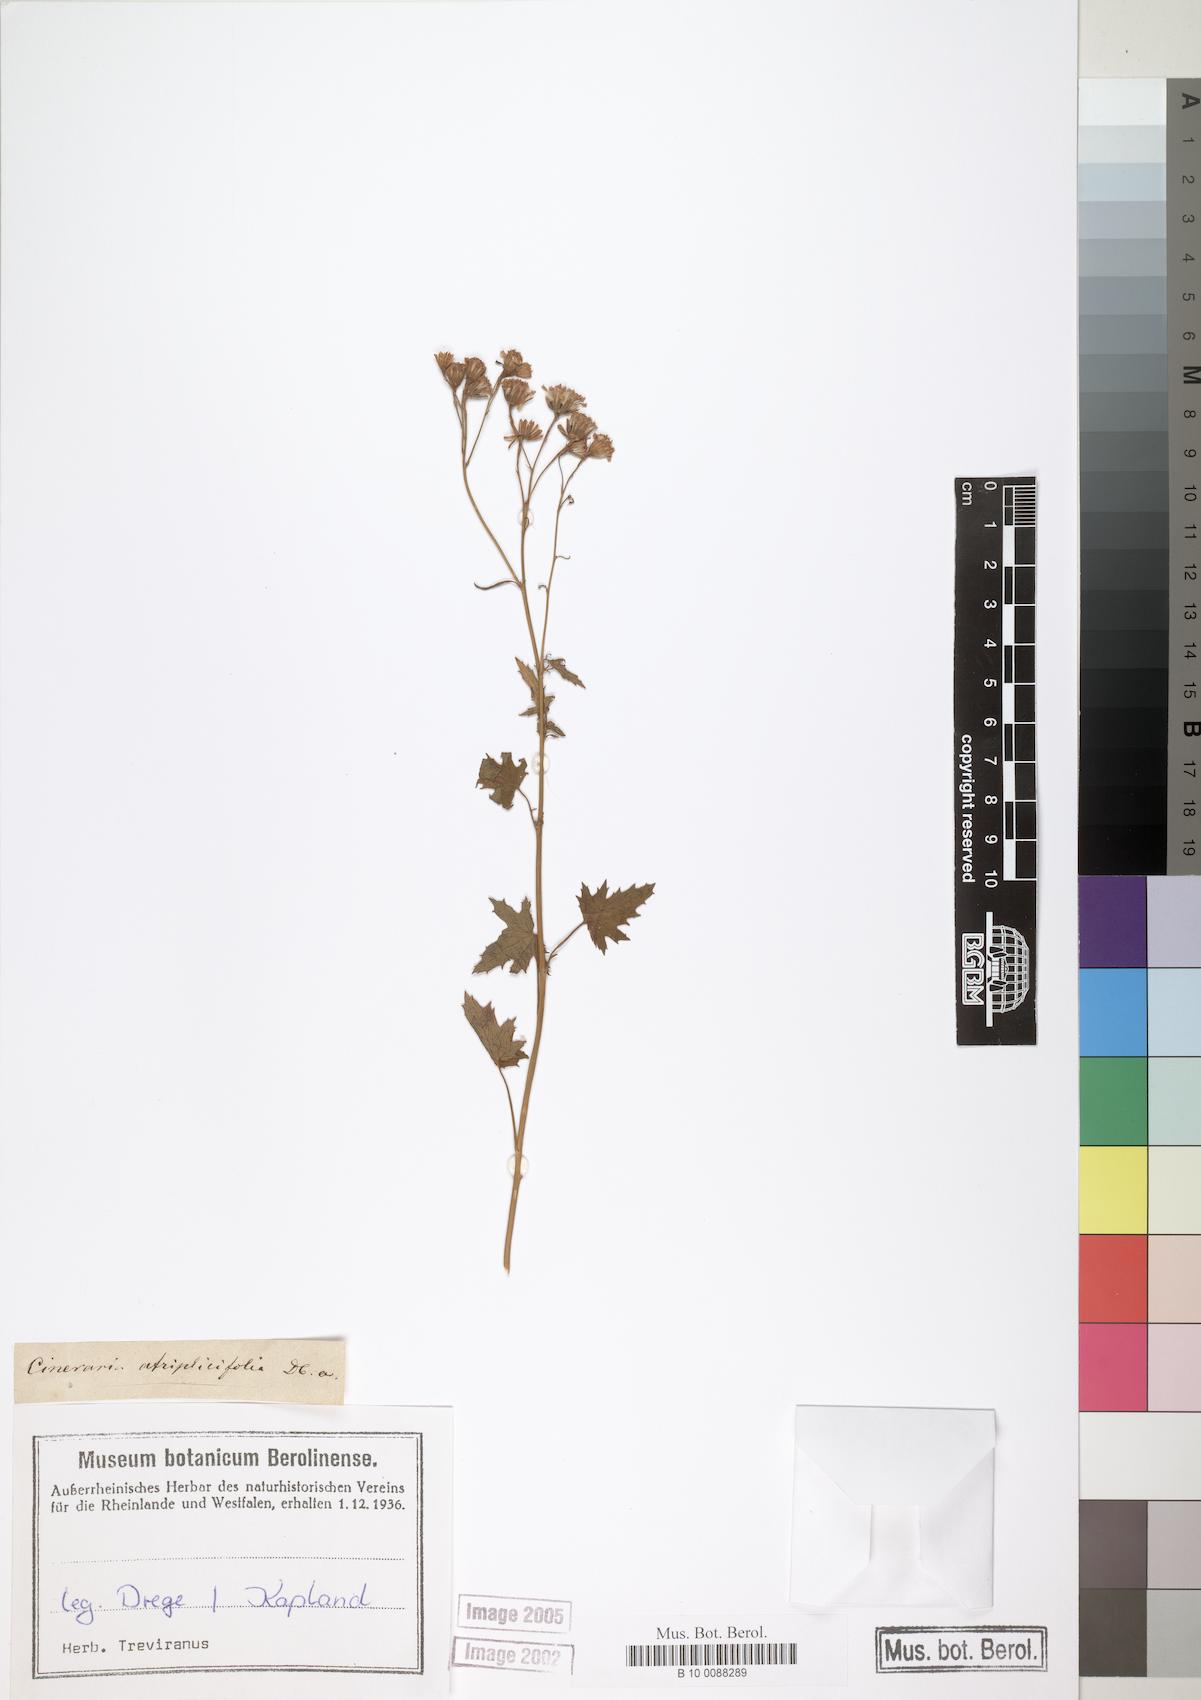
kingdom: Plantae
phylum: Tracheophyta
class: Magnoliopsida
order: Asterales
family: Asteraceae
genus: Cineraria
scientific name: Cineraria atriplicifolia
